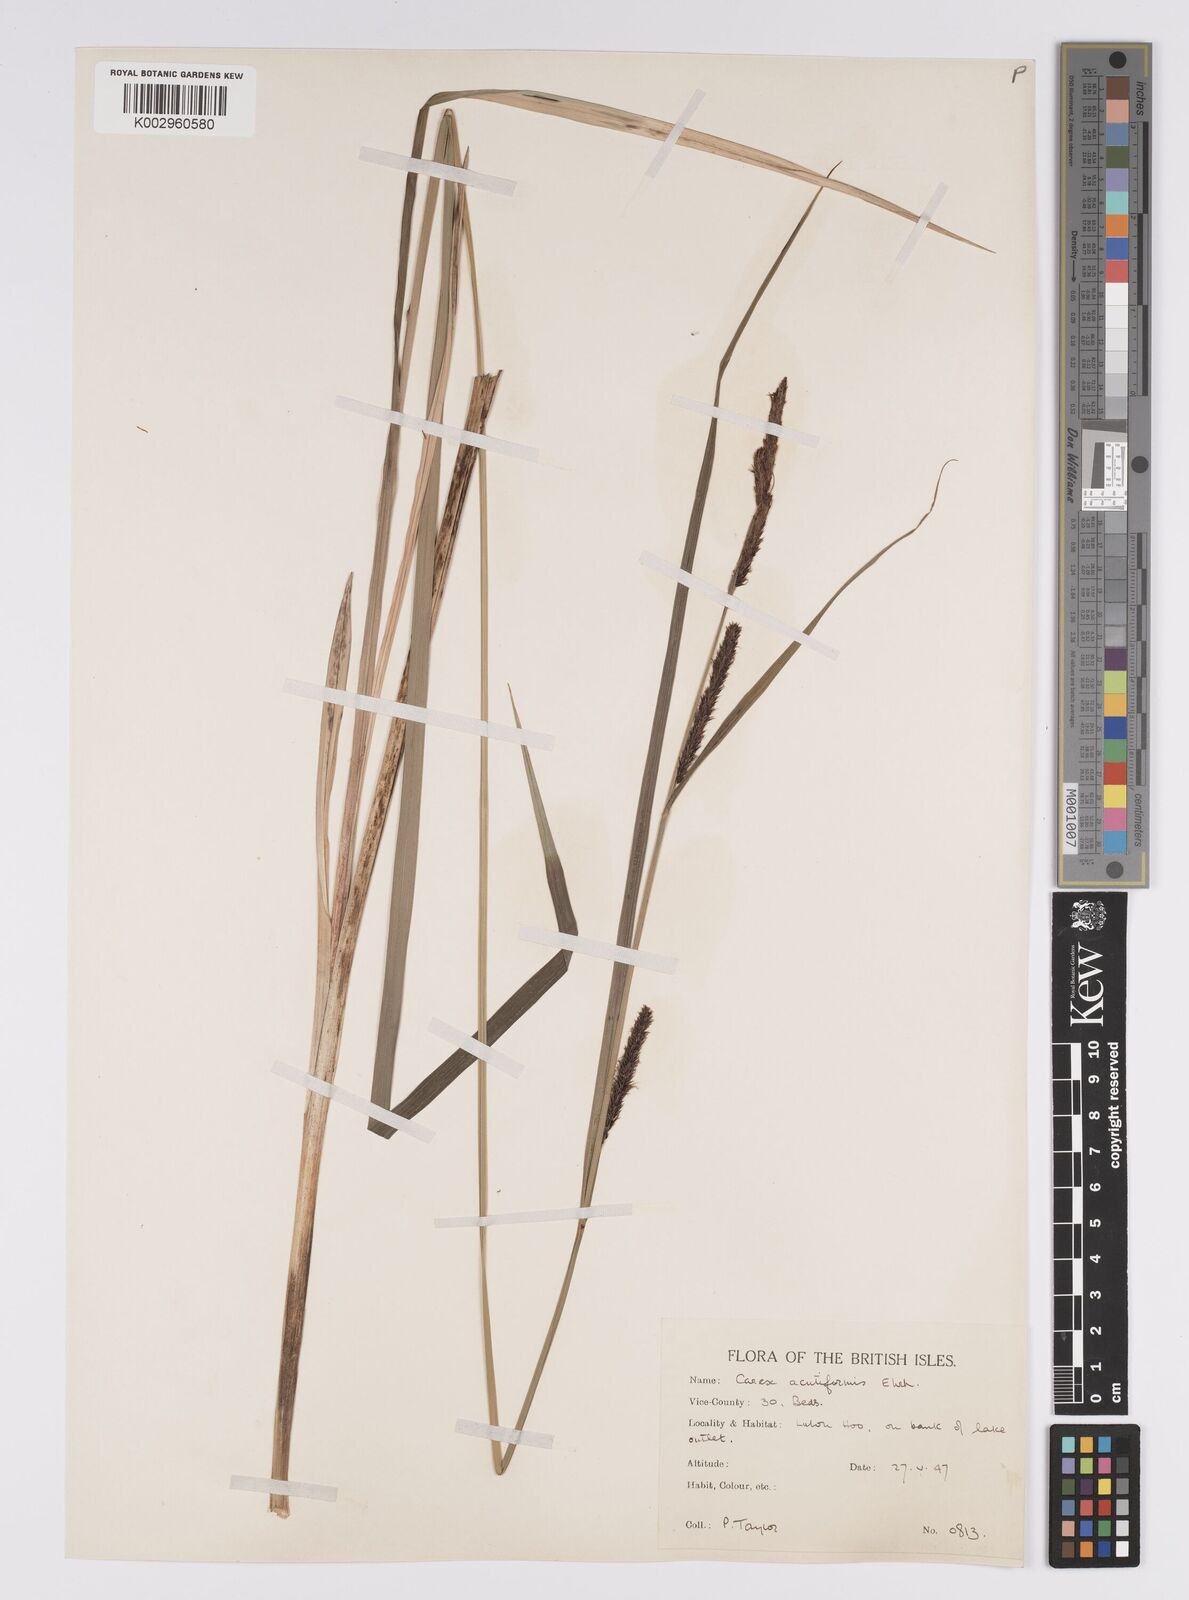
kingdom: Plantae
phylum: Tracheophyta
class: Liliopsida
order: Poales
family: Cyperaceae
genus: Carex
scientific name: Carex acutiformis
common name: Lesser pond-sedge
